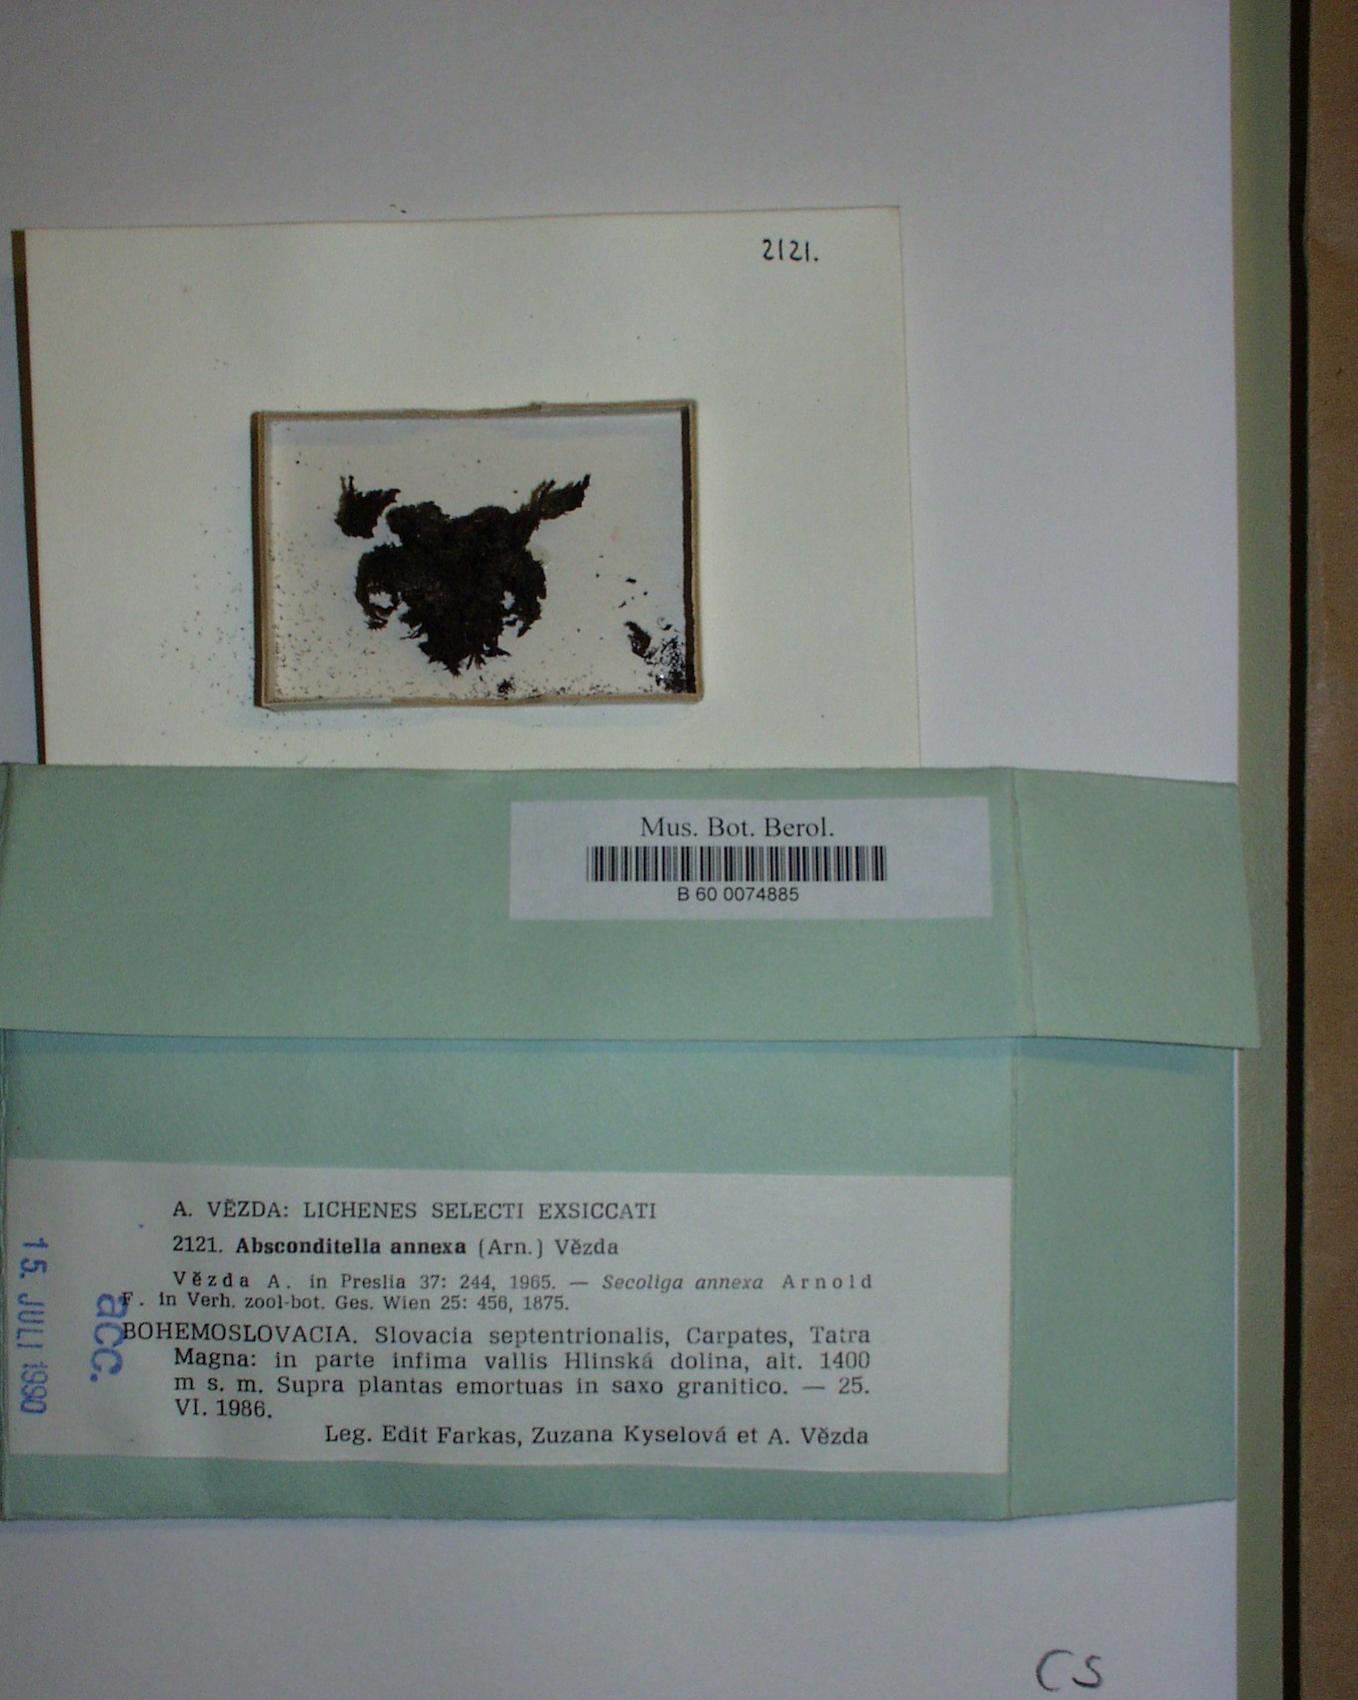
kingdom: Fungi
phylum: Ascomycota
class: Lecanoromycetes
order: Ostropales
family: Stictidaceae
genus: Absconditella
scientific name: Absconditella annexa
